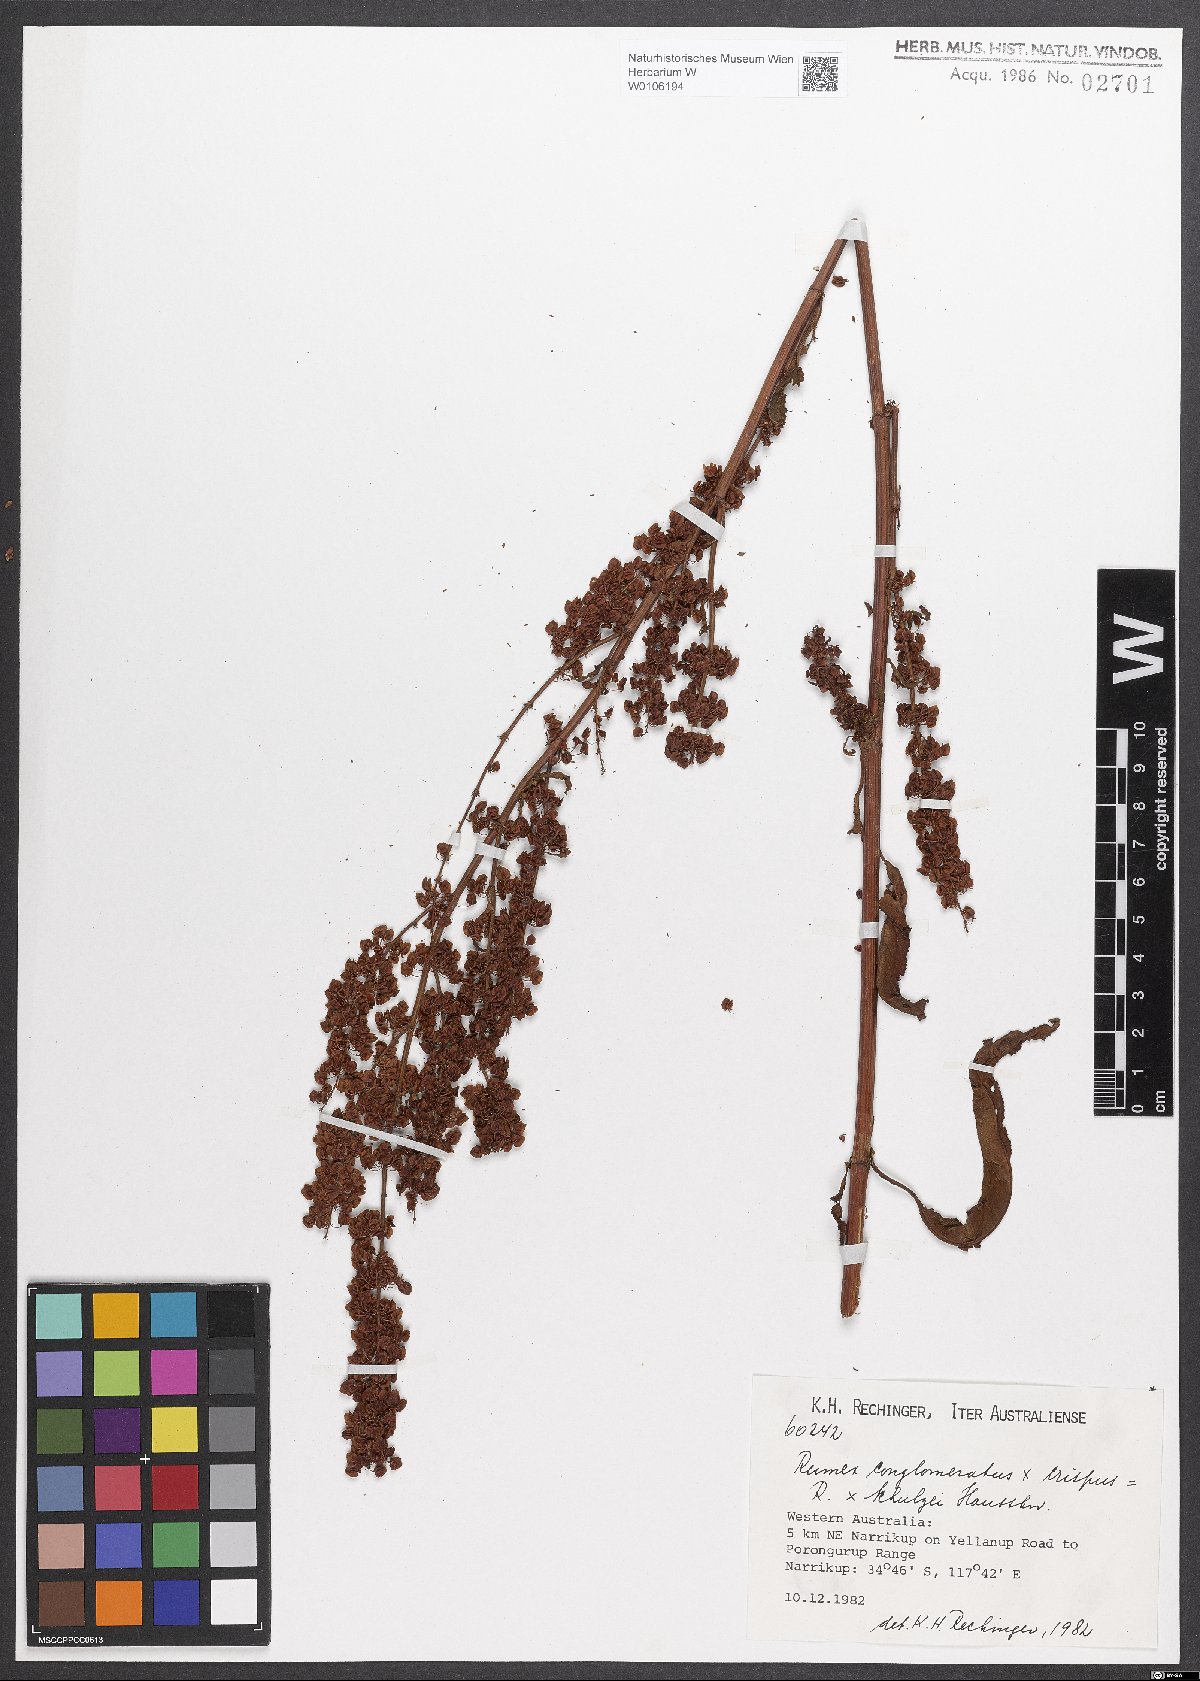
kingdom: Plantae
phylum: Tracheophyta
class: Magnoliopsida
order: Caryophyllales
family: Polygonaceae
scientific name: Polygonaceae
